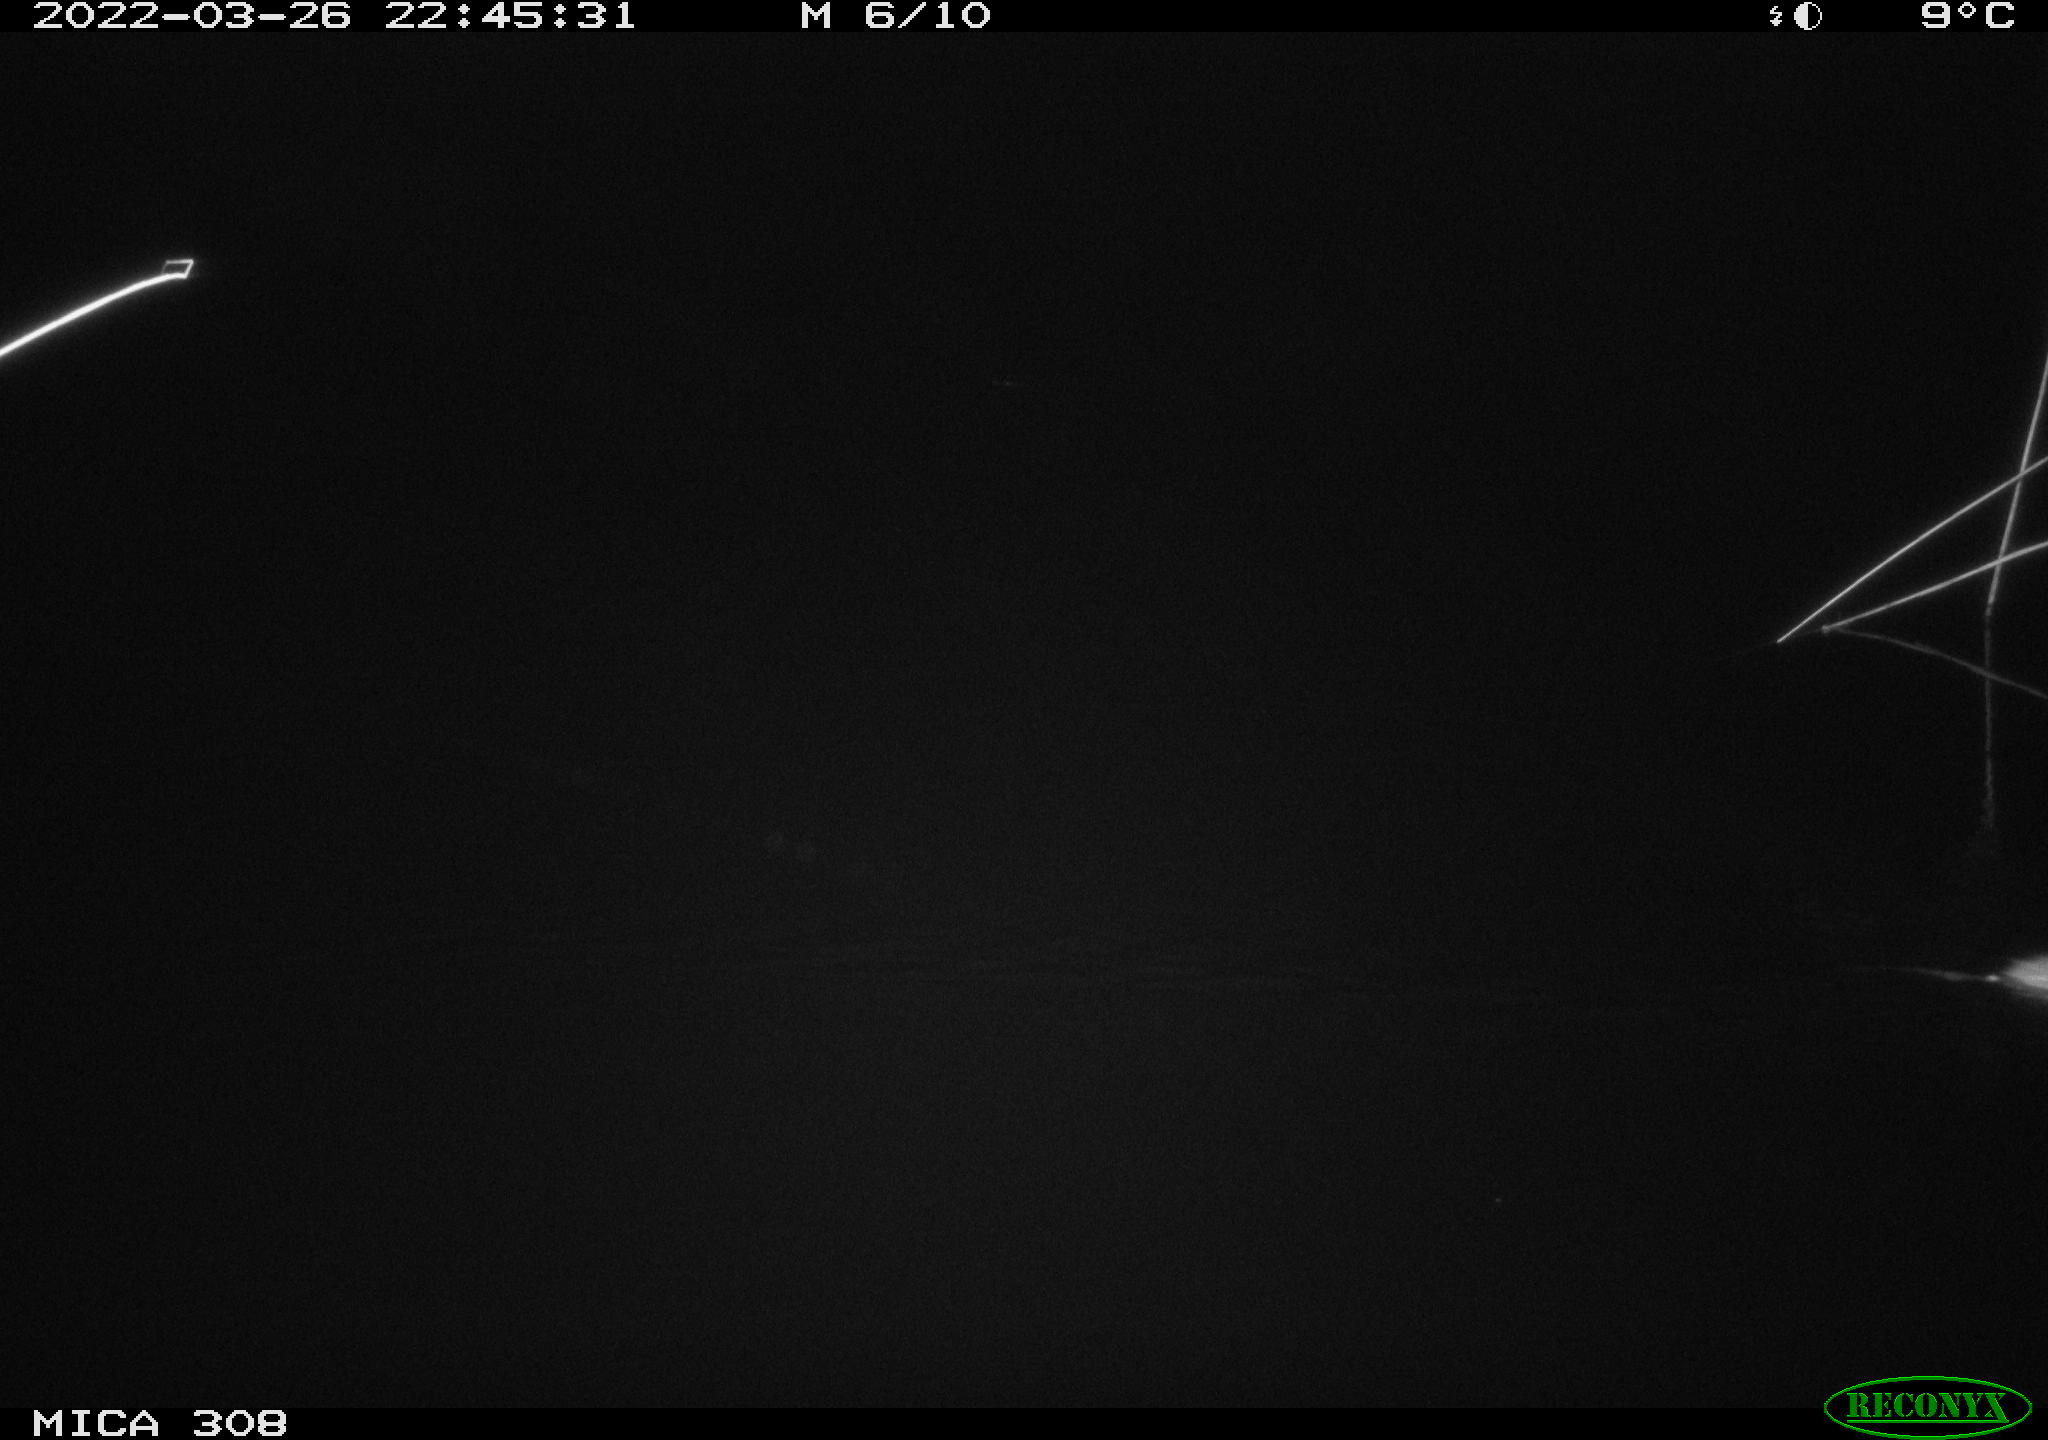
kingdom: Animalia
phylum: Chordata
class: Mammalia
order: Rodentia
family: Muridae
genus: Rattus
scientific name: Rattus norvegicus
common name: Brown rat
